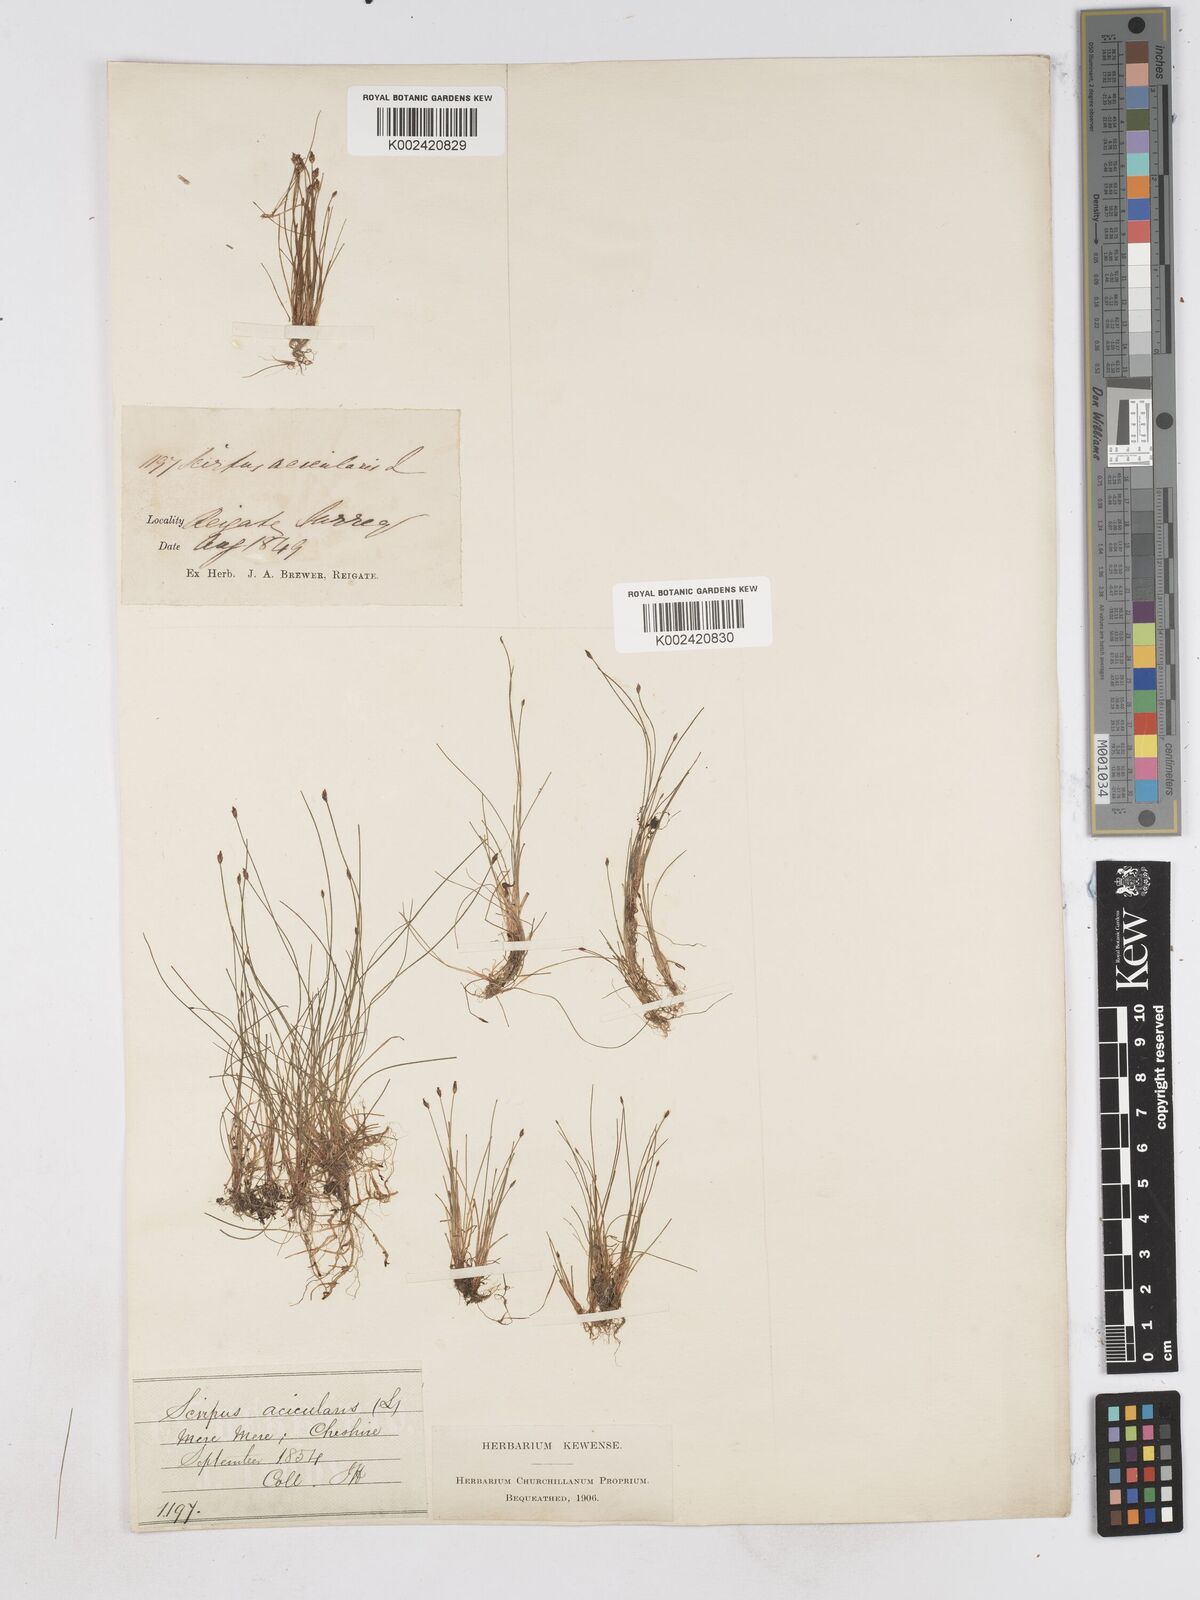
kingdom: Plantae
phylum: Tracheophyta
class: Liliopsida
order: Poales
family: Cyperaceae
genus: Eleocharis
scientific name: Eleocharis acicularis
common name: Needle spike-rush
